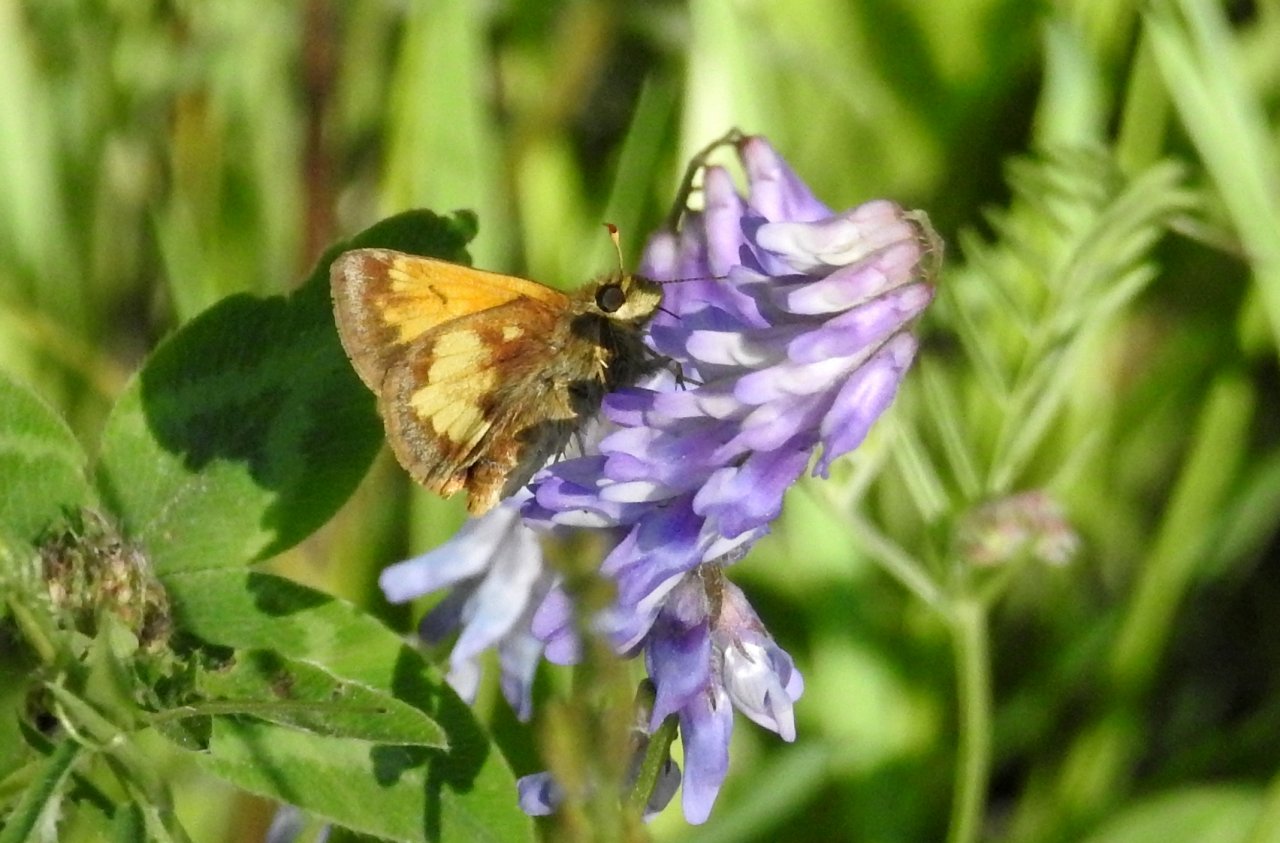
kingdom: Animalia
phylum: Arthropoda
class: Insecta
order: Lepidoptera
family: Hesperiidae
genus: Lon
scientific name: Lon hobomok
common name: Hobomok Skipper
